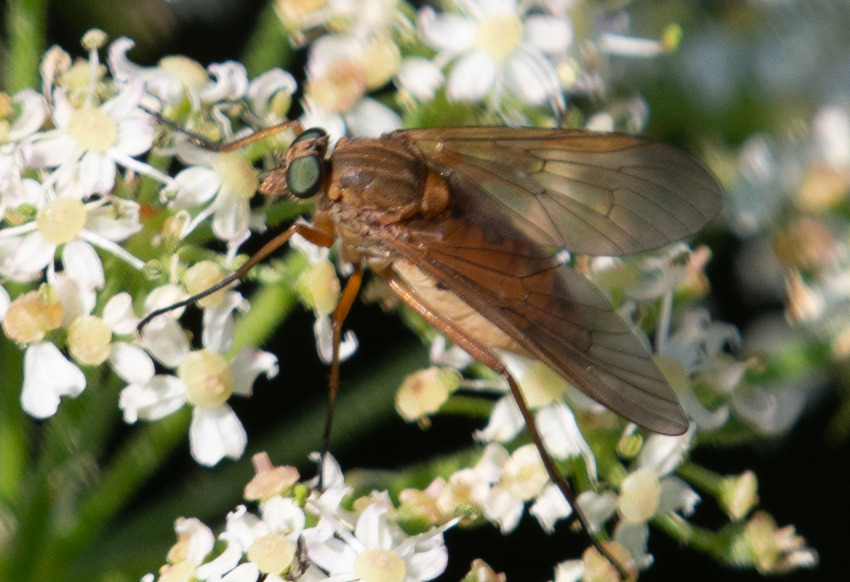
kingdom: Animalia
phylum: Arthropoda
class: Insecta
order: Diptera
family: Rhagionidae
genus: Rhagio
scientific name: Rhagio tringaria
